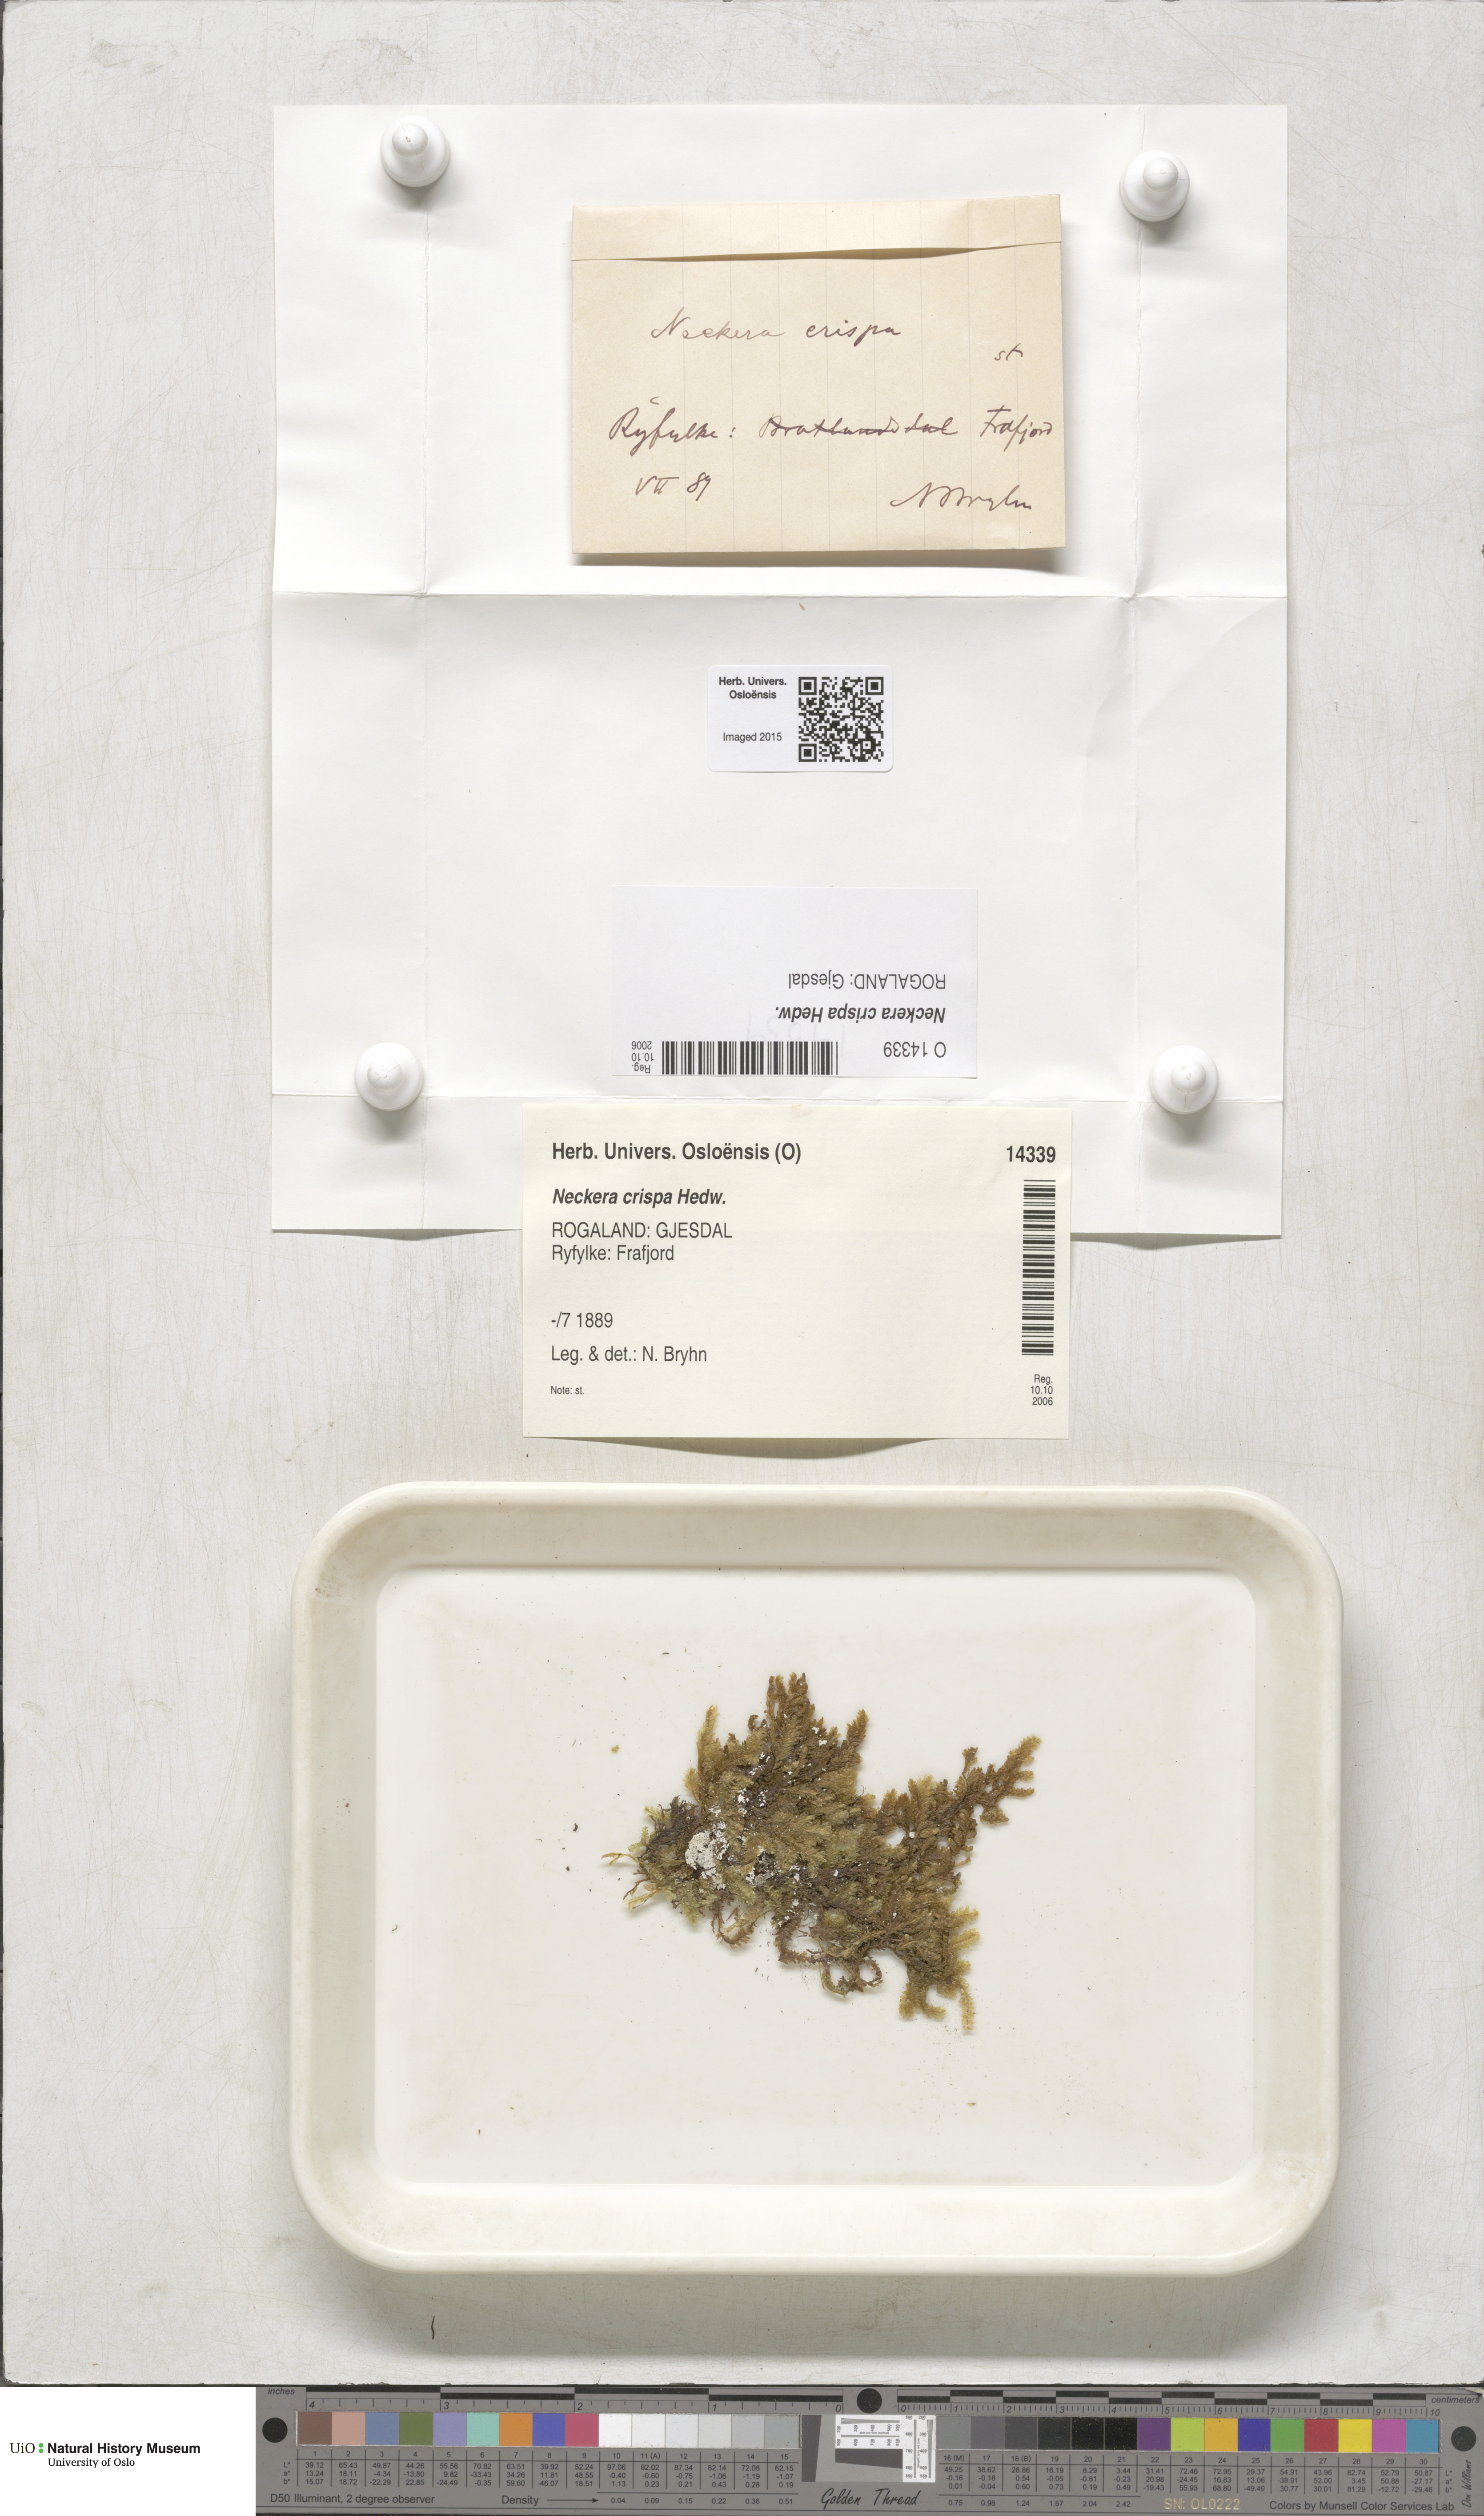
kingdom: Plantae
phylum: Bryophyta
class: Bryopsida
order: Hypnales
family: Neckeraceae
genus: Exsertotheca
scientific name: Exsertotheca crispa
